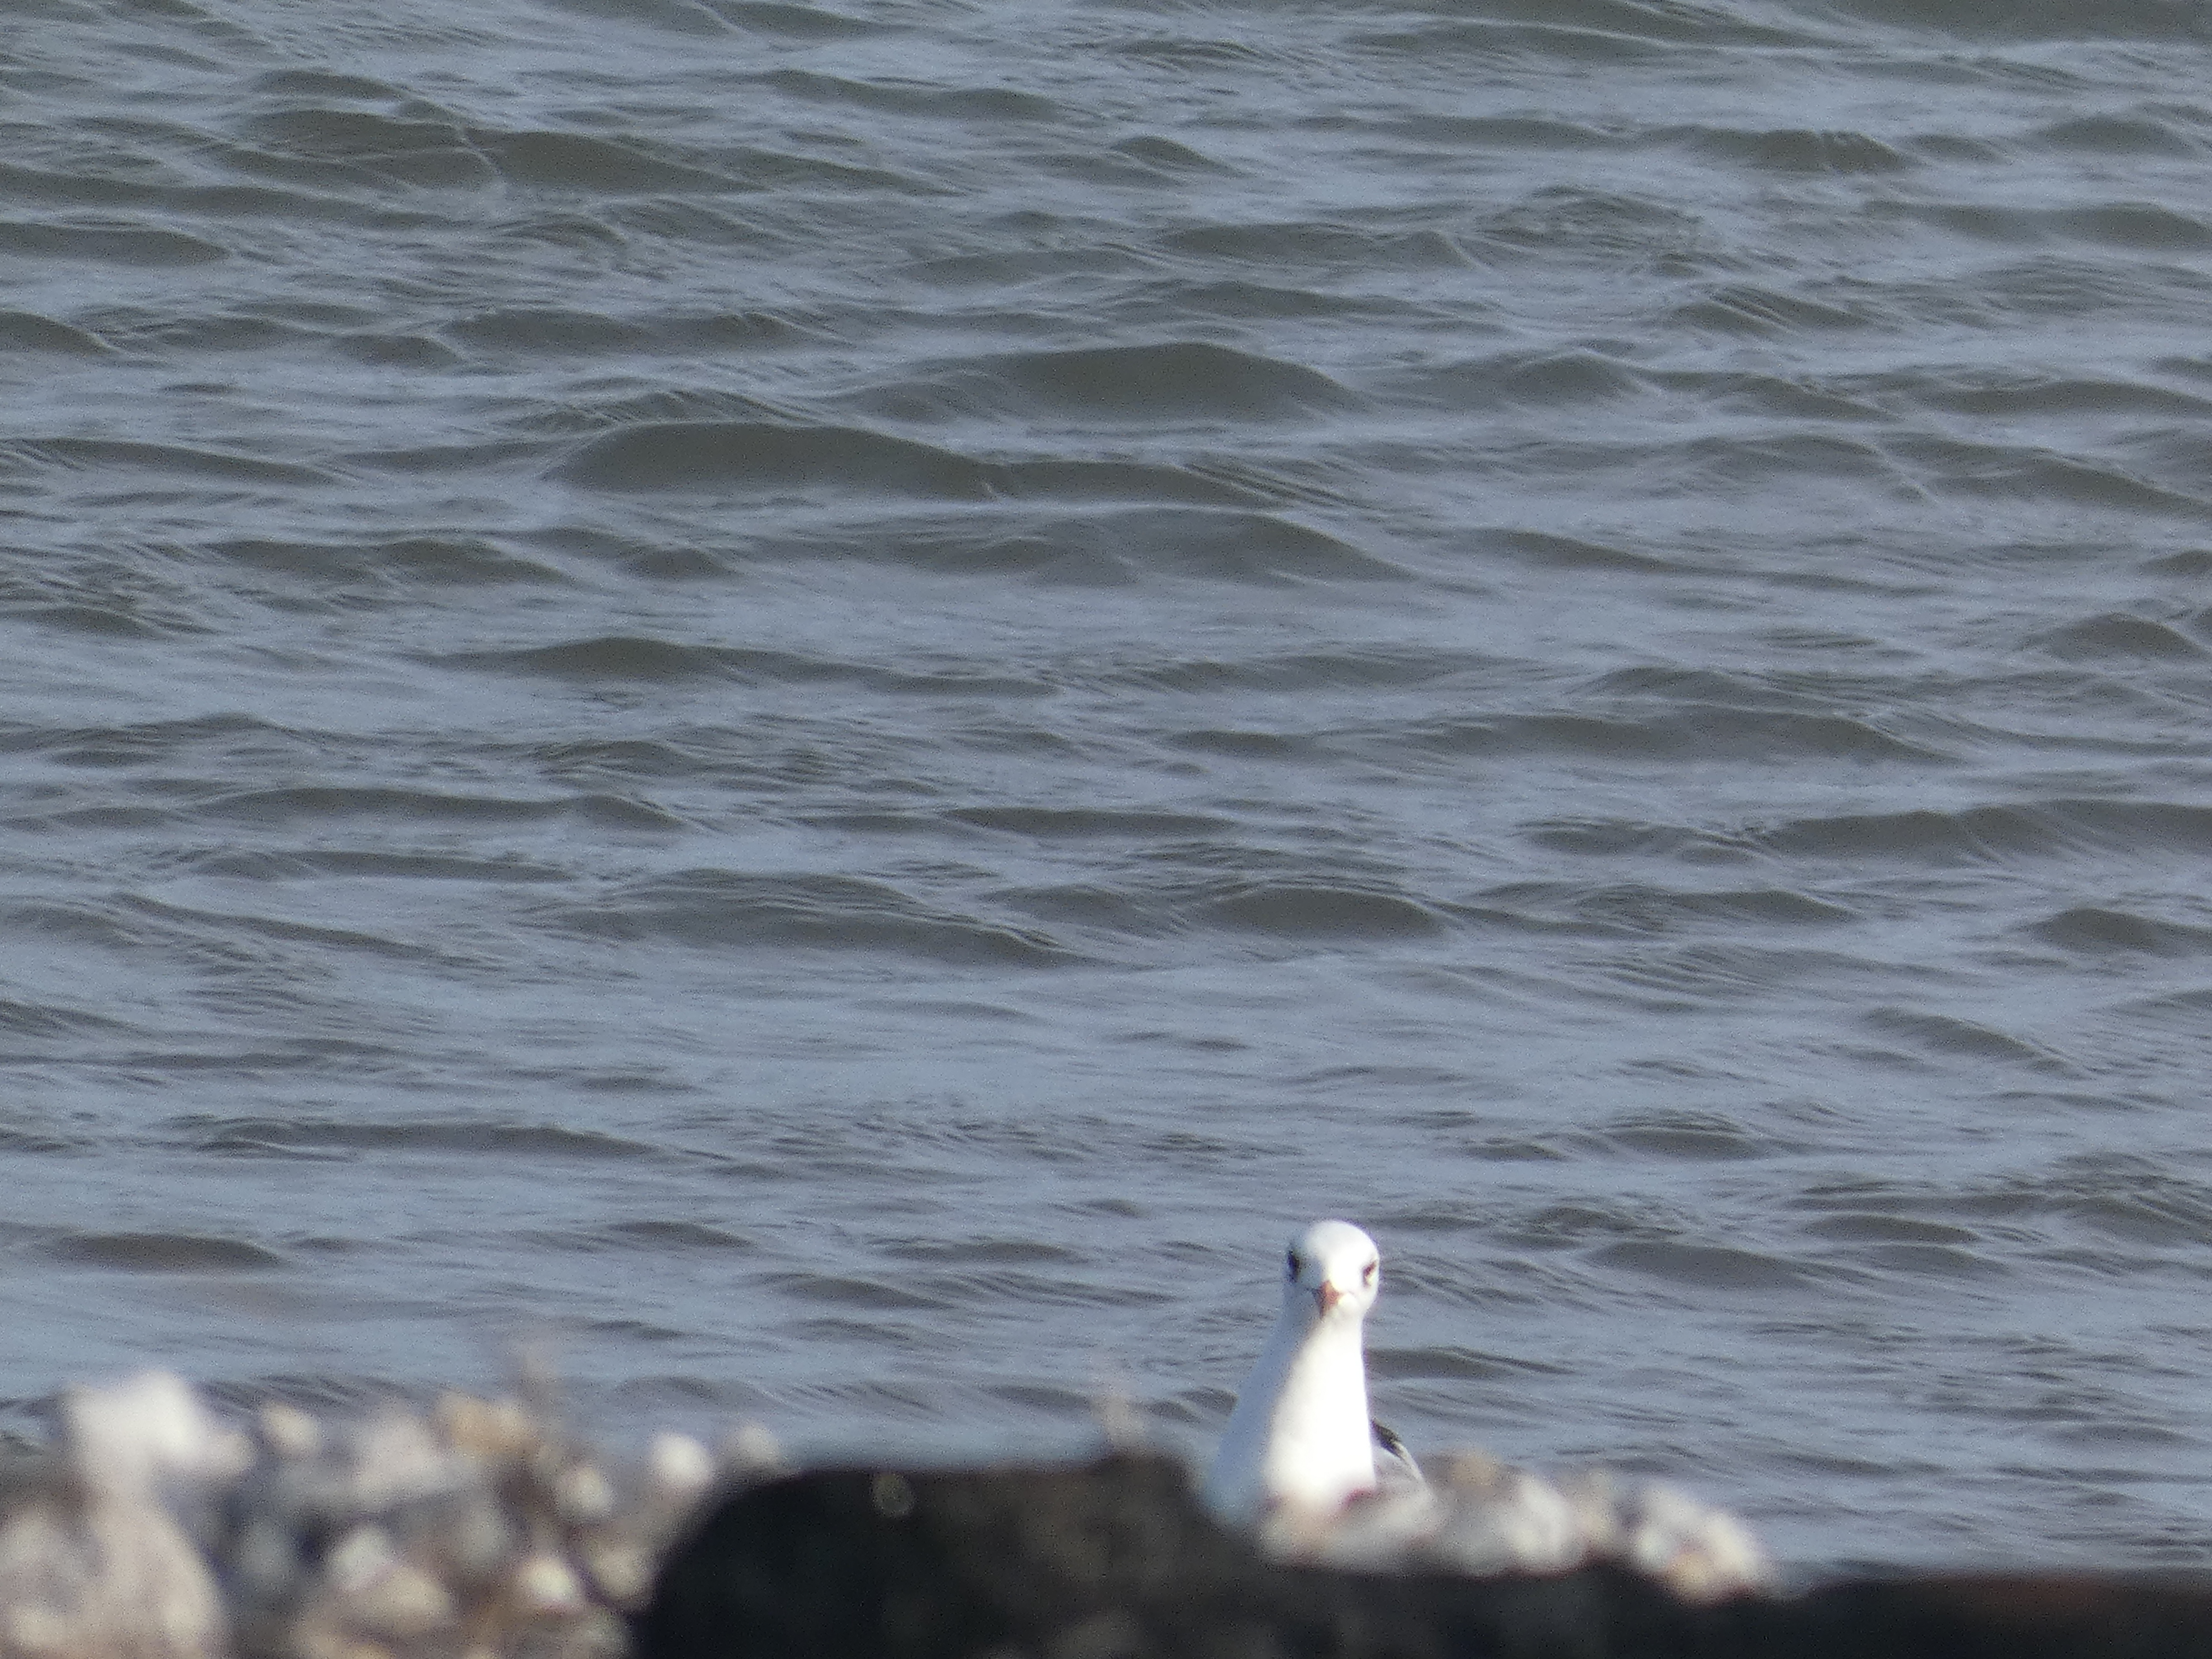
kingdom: Animalia
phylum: Chordata
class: Aves
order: Charadriiformes
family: Laridae
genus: Chroicocephalus
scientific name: Chroicocephalus ridibundus
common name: Hættemåge
